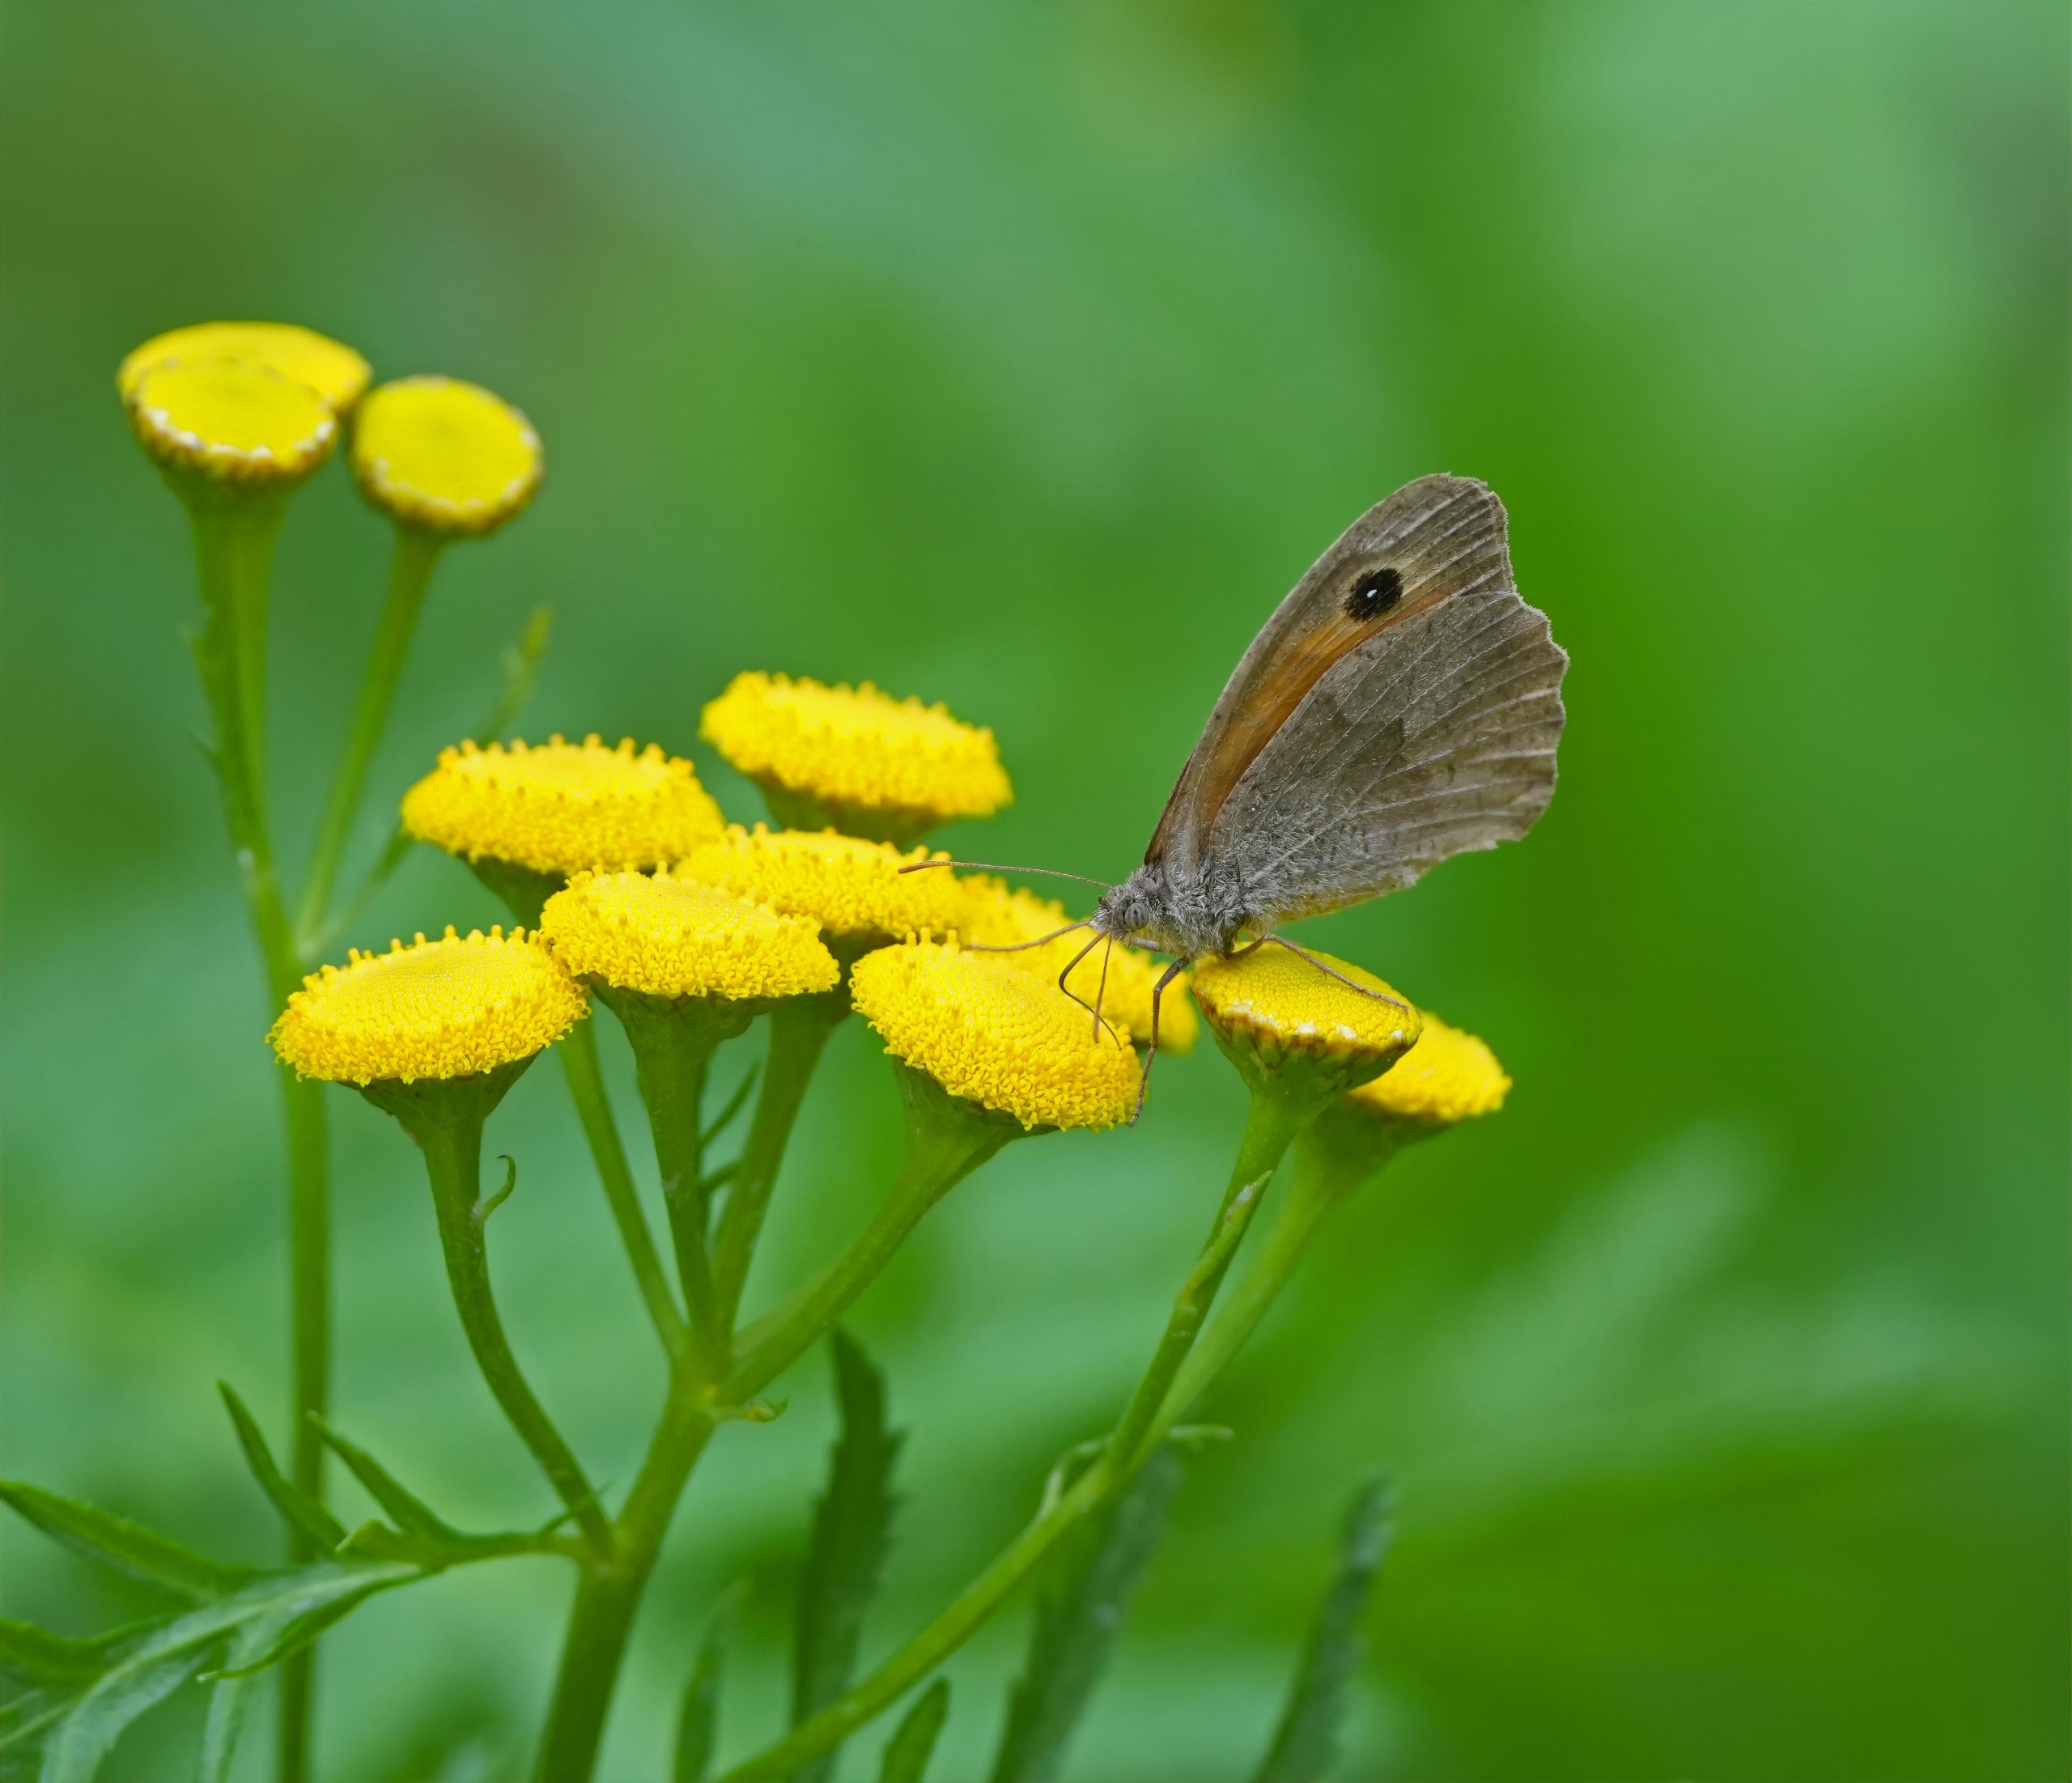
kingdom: Animalia
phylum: Arthropoda
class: Insecta
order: Lepidoptera
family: Nymphalidae
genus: Maniola
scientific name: Maniola jurtina
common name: Græsrandøje
